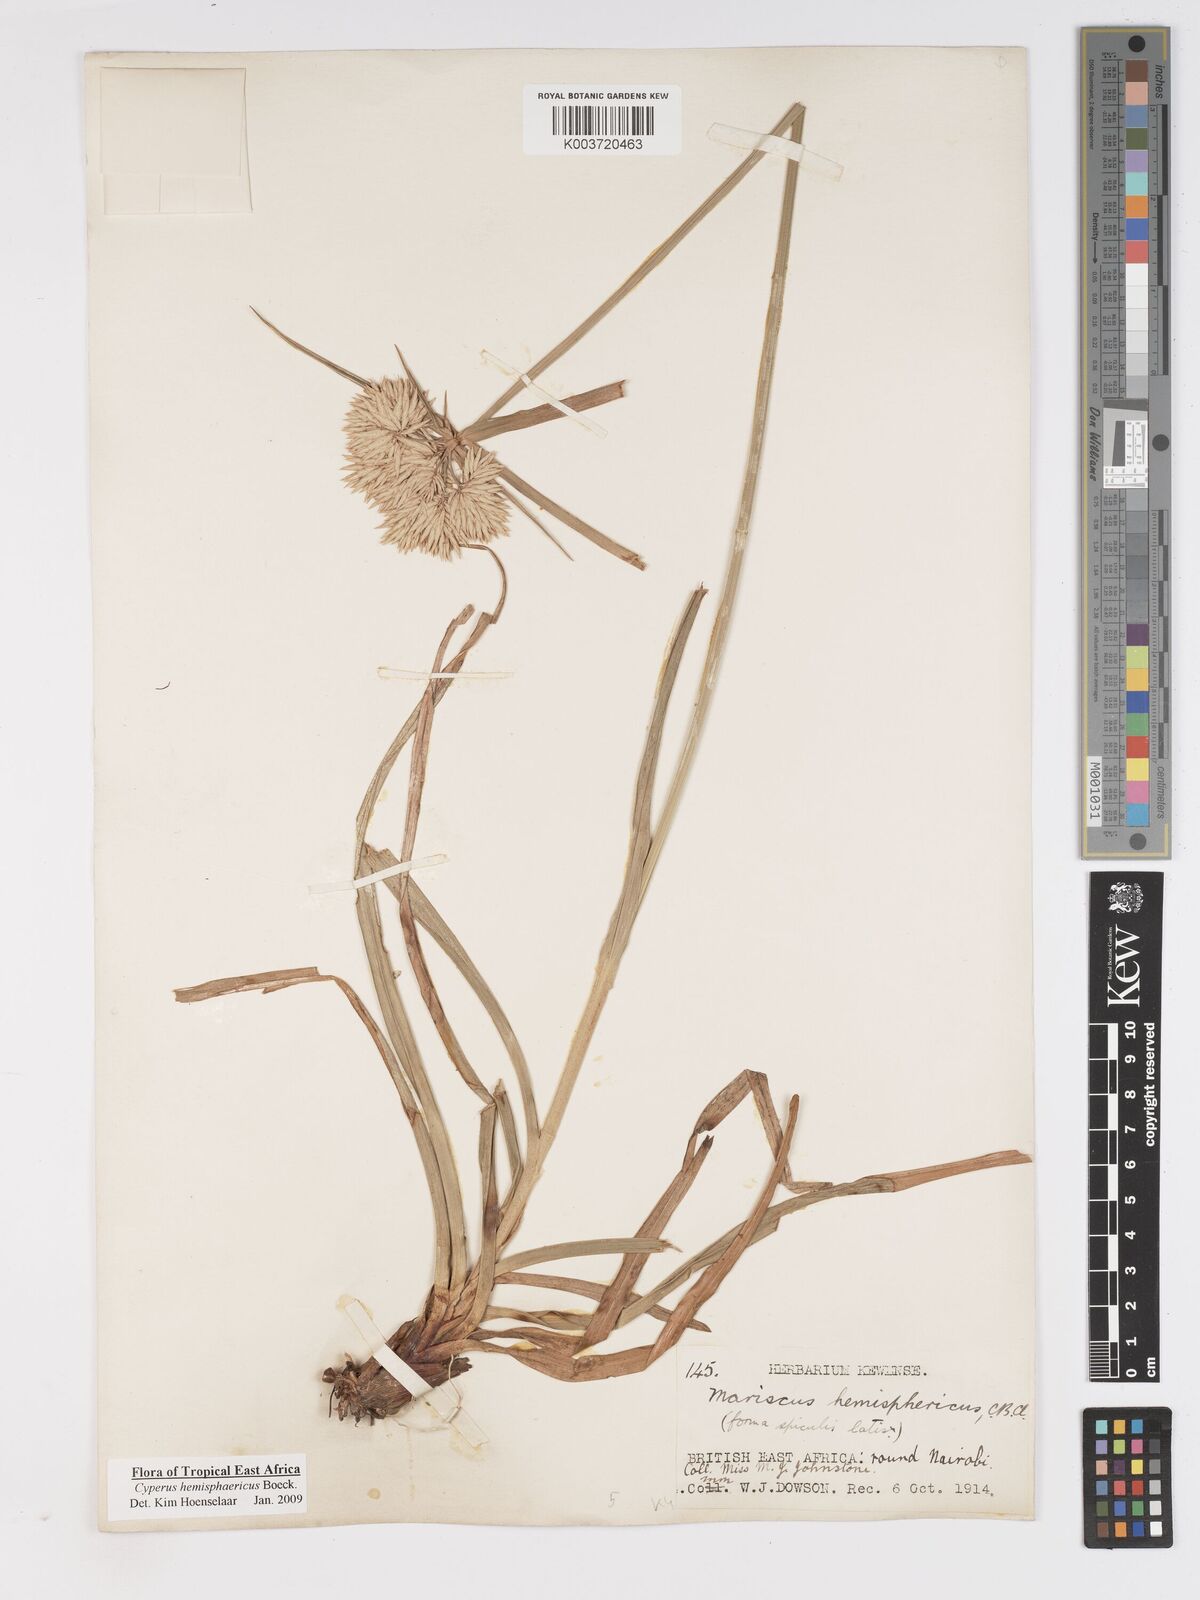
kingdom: Plantae
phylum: Tracheophyta
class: Liliopsida
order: Poales
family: Cyperaceae
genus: Cyperus
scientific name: Cyperus hemisphaericus
